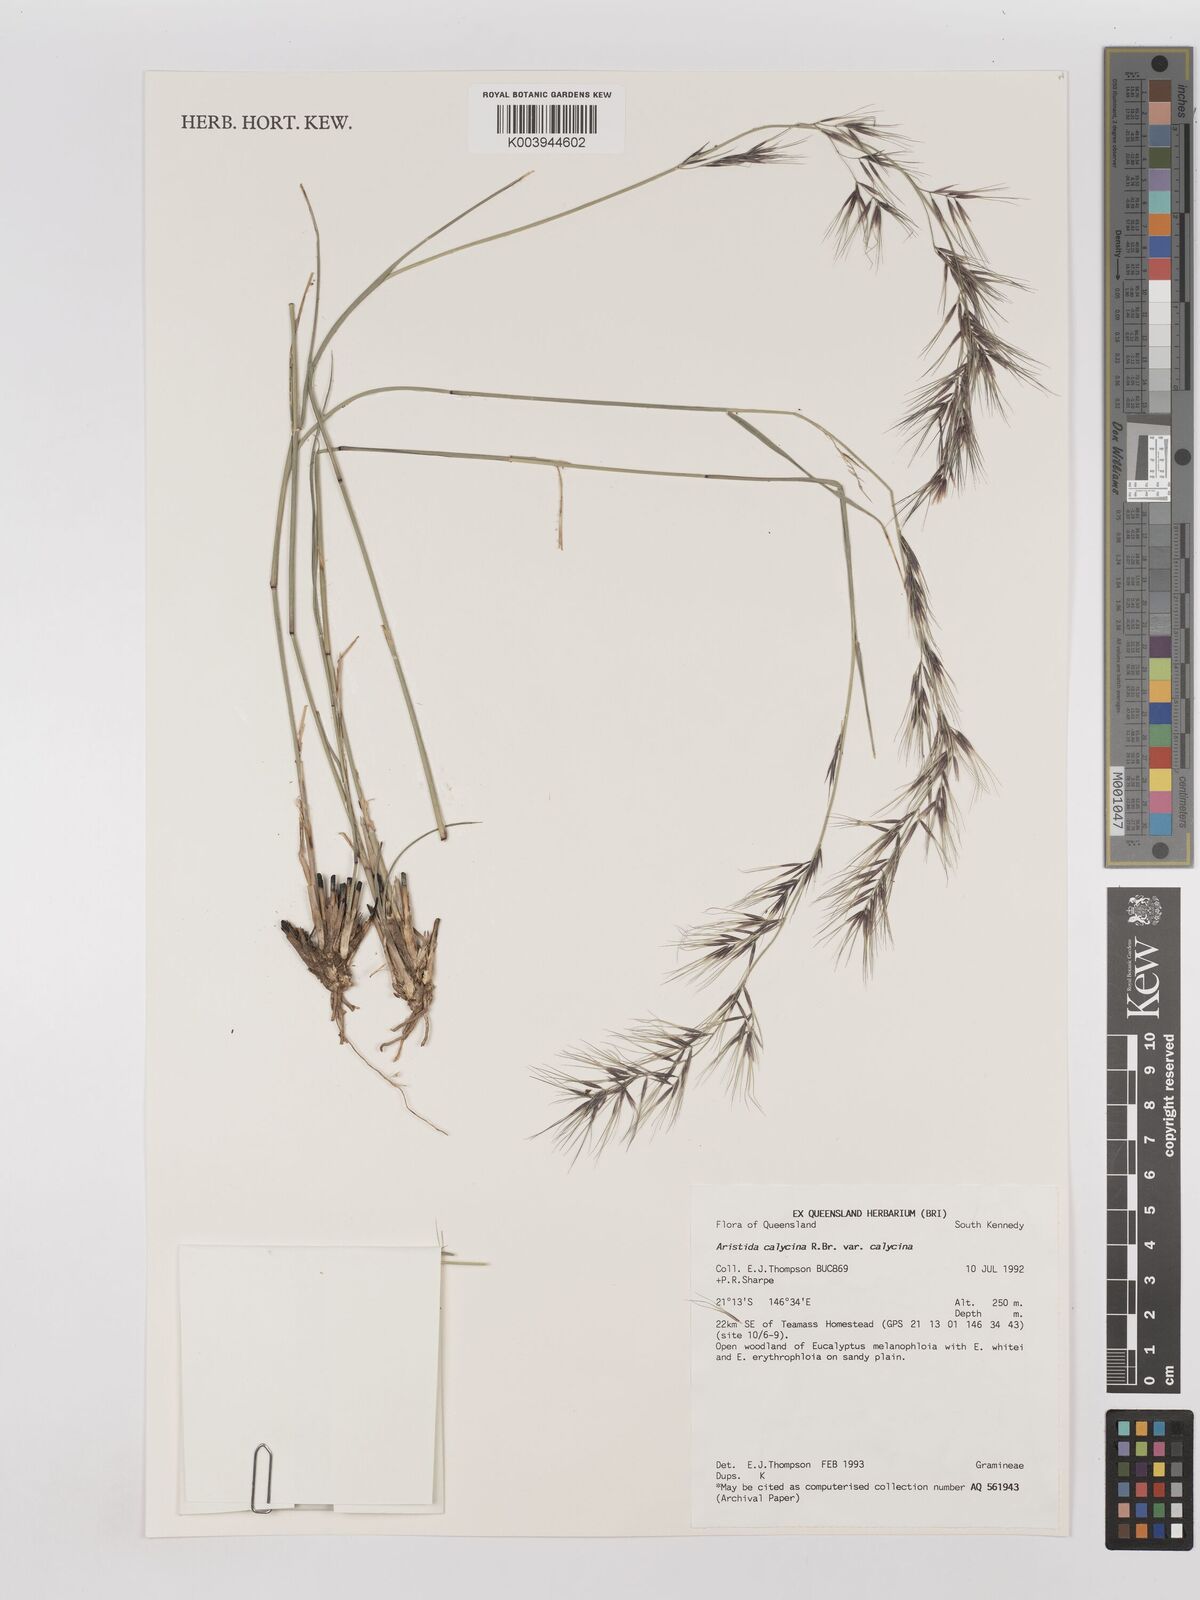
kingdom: Plantae
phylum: Tracheophyta
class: Liliopsida
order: Poales
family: Poaceae
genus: Aristida
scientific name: Aristida calycina
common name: Dark wire grass
